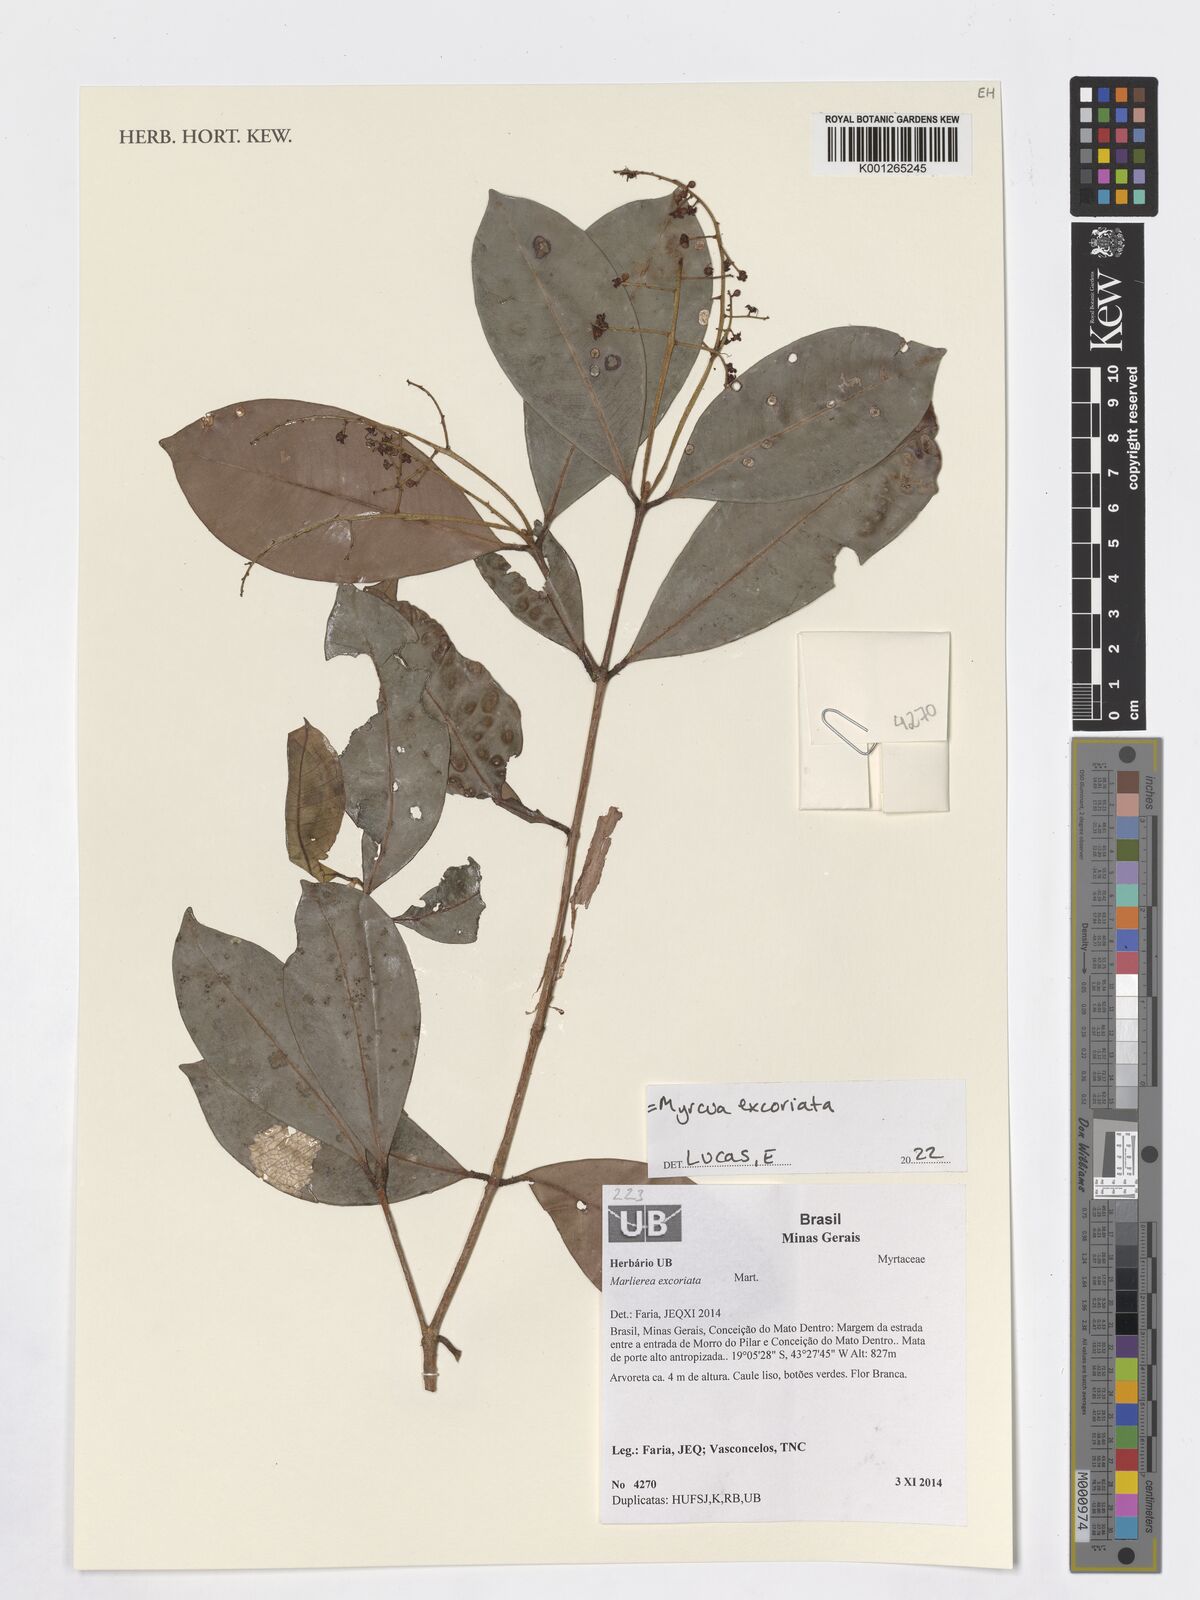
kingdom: Plantae
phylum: Tracheophyta
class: Magnoliopsida
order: Myrtales
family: Myrtaceae
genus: Myrcia
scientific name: Myrcia excoriata
